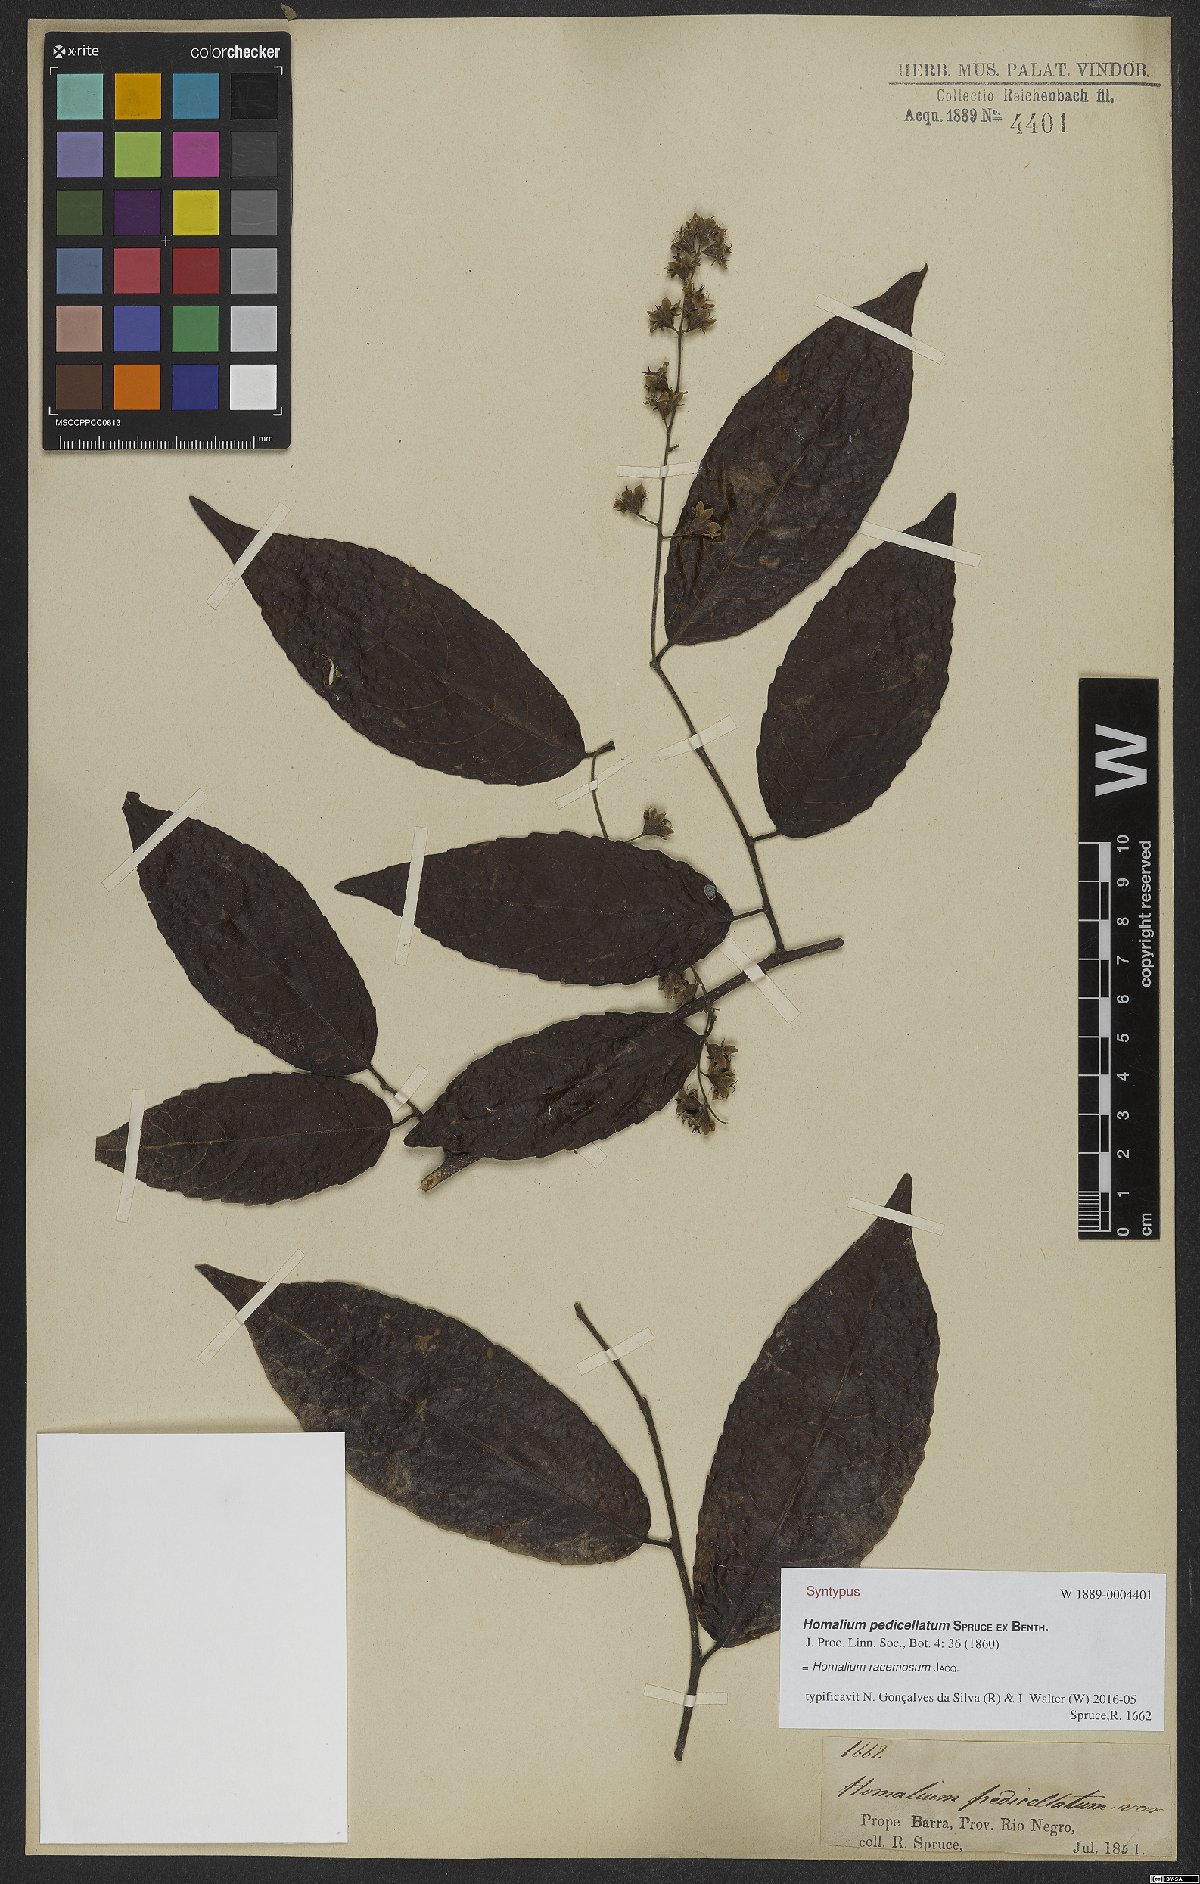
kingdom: Plantae
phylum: Tracheophyta
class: Magnoliopsida
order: Malpighiales
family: Salicaceae
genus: Homalium
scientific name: Homalium racemosum
